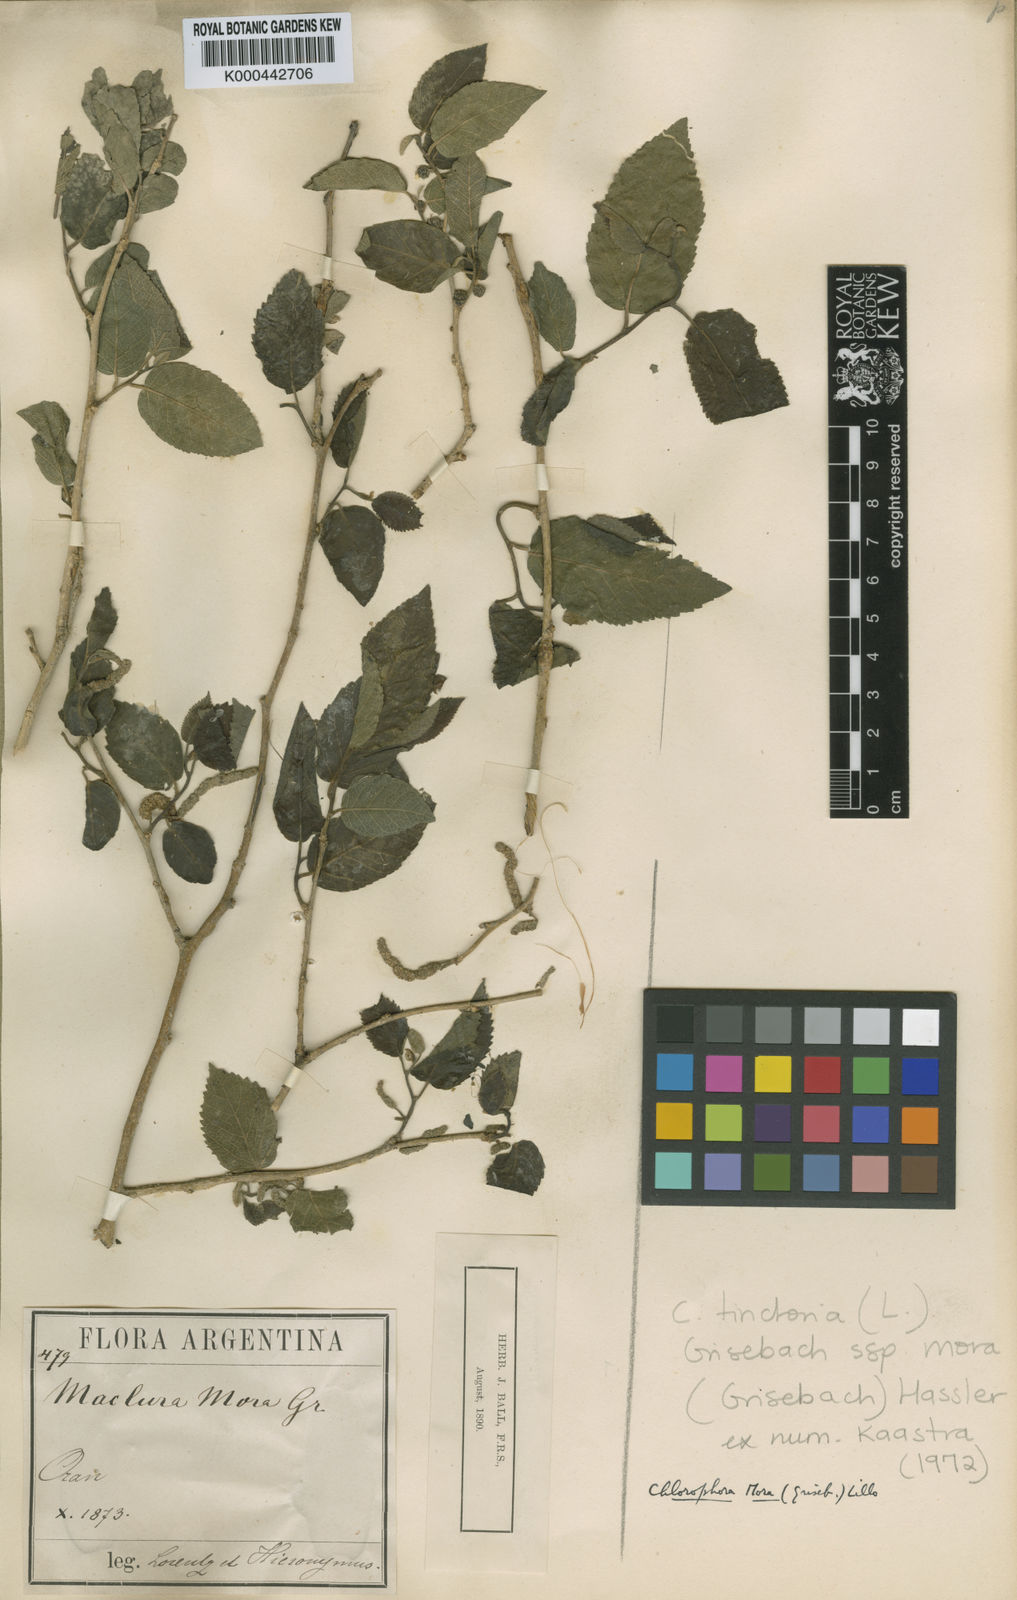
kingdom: Plantae
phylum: Tracheophyta
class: Magnoliopsida
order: Rosales
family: Moraceae
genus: Maclura
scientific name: Maclura tinctoria
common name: Old fustic
